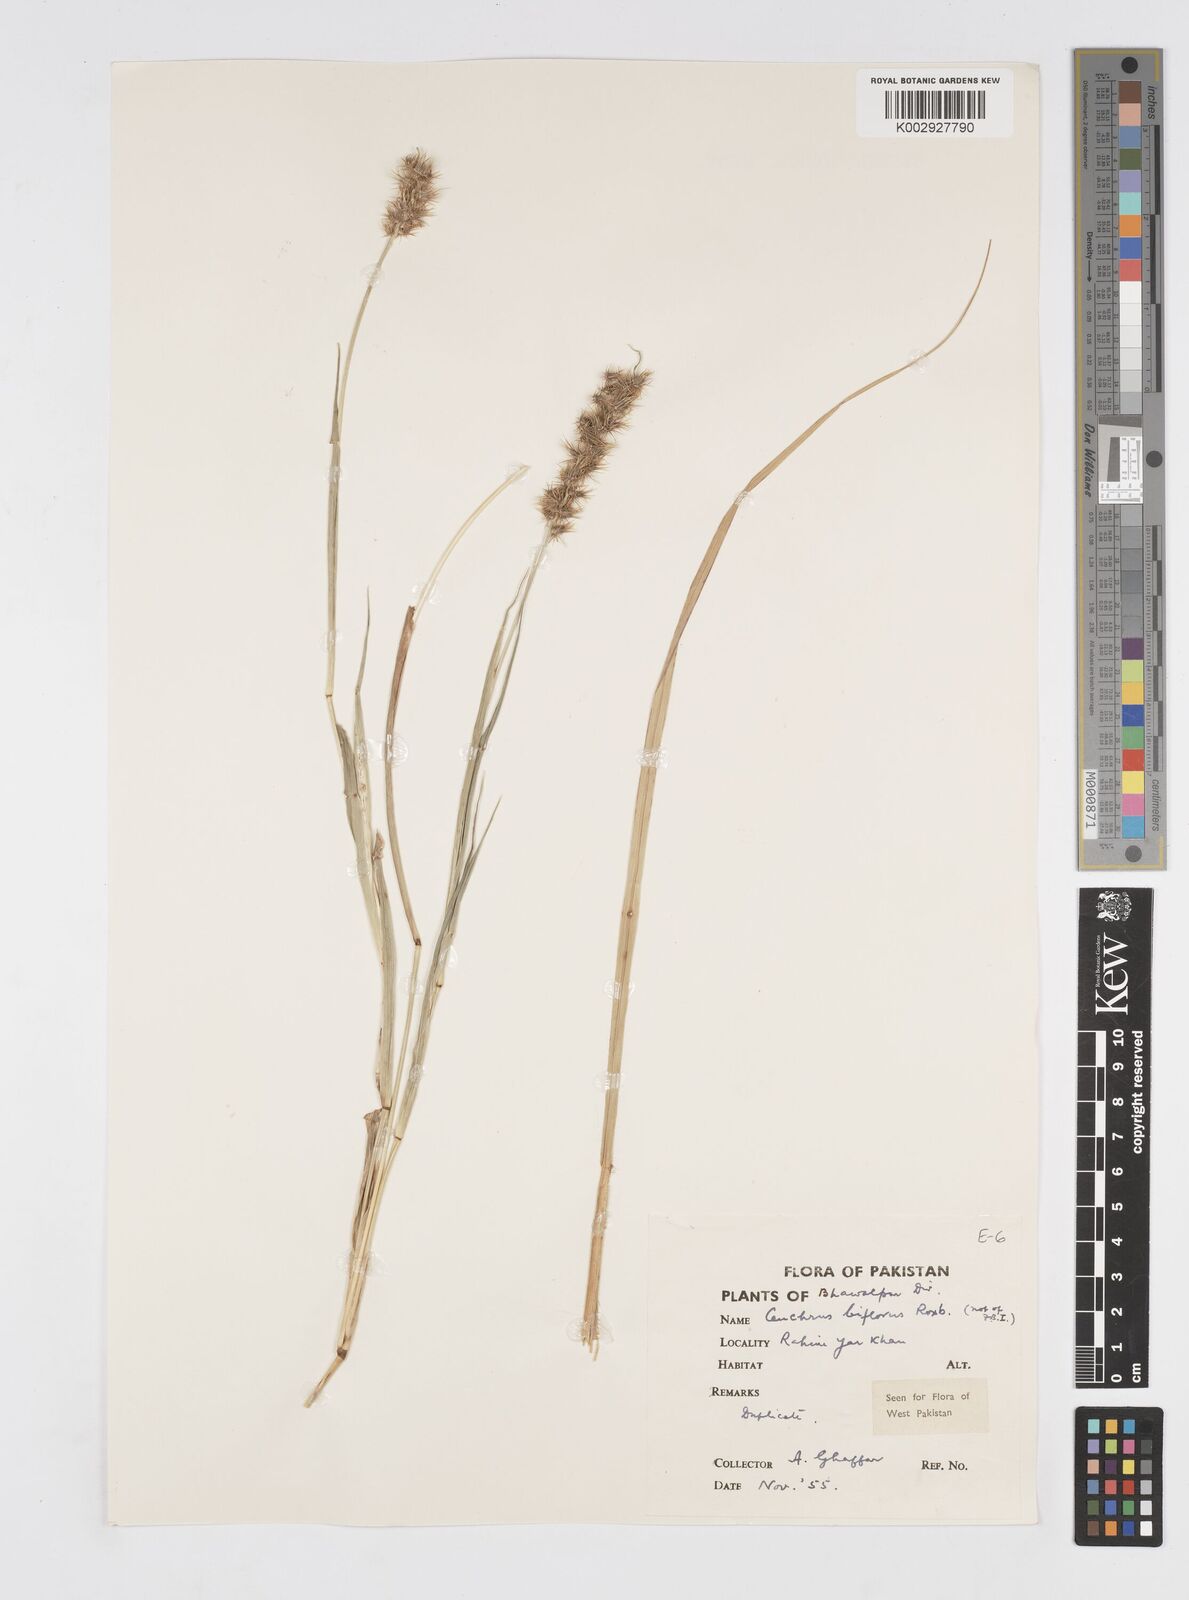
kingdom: Plantae
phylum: Tracheophyta
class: Liliopsida
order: Poales
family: Poaceae
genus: Cenchrus
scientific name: Cenchrus biflorus
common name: Indian sandbur
